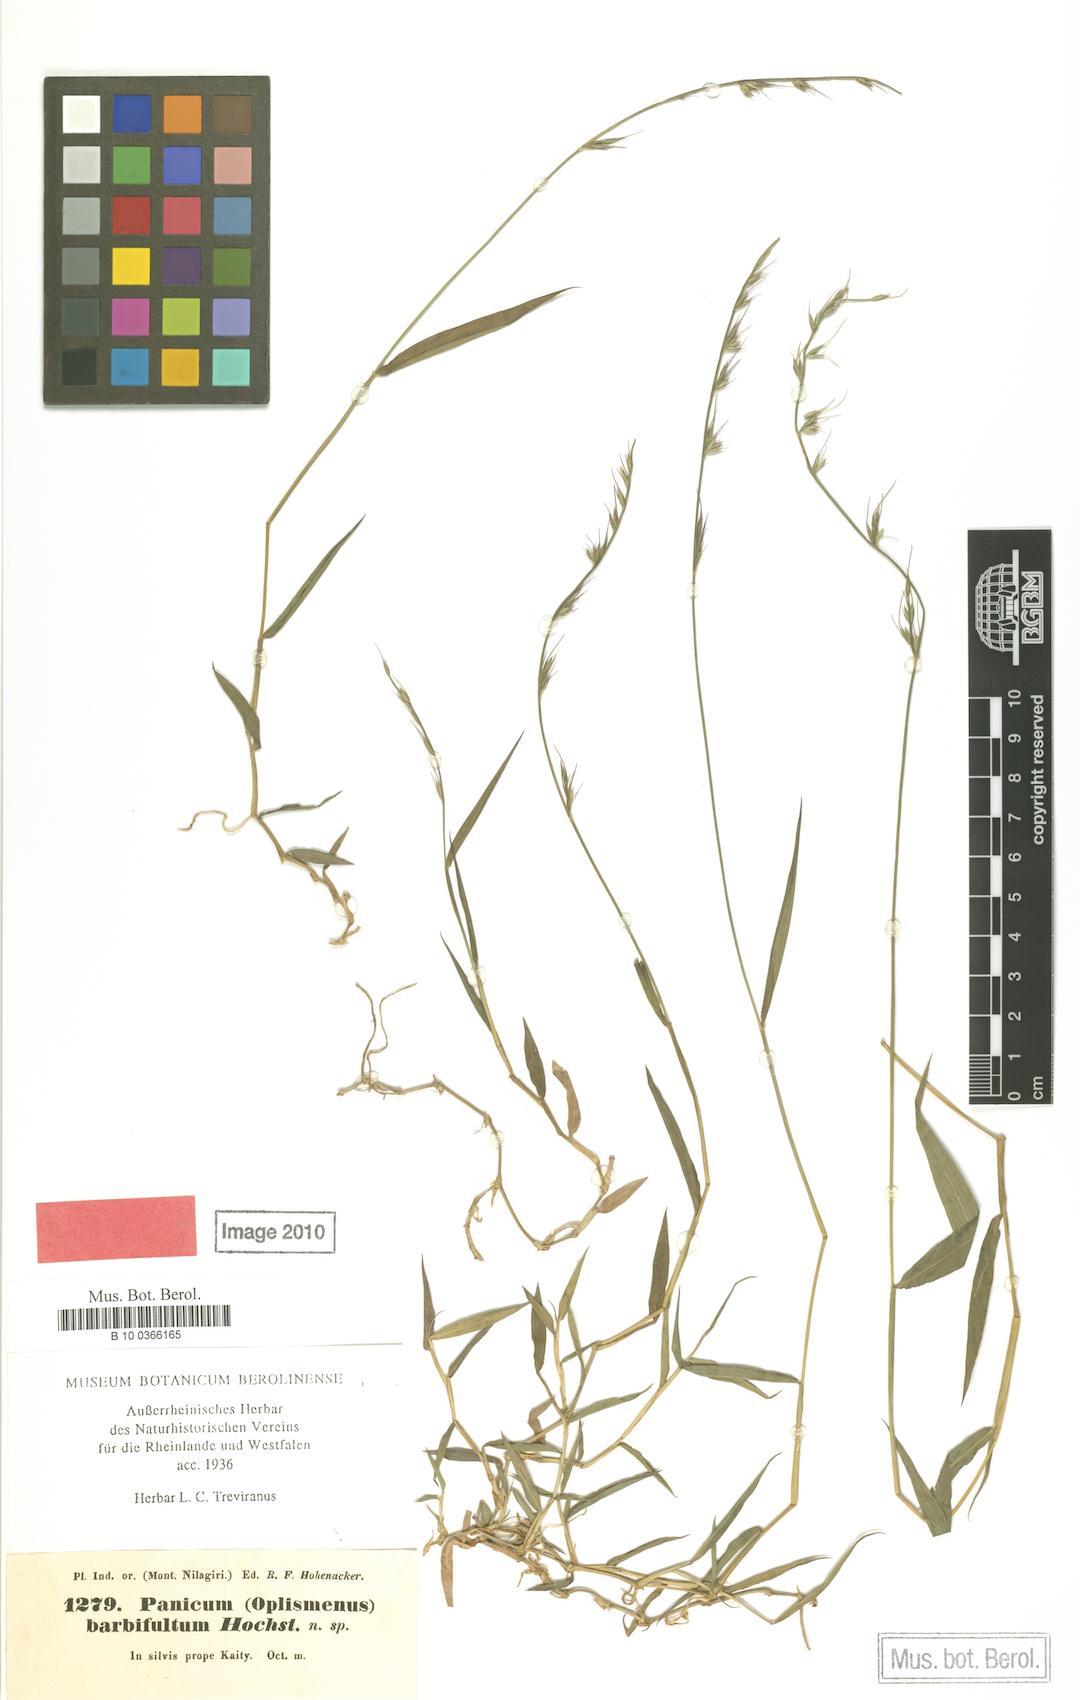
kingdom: Plantae
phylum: Tracheophyta
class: Liliopsida
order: Poales
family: Poaceae
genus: Oplismenus
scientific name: Oplismenus hirtellus
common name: Basketgrass
